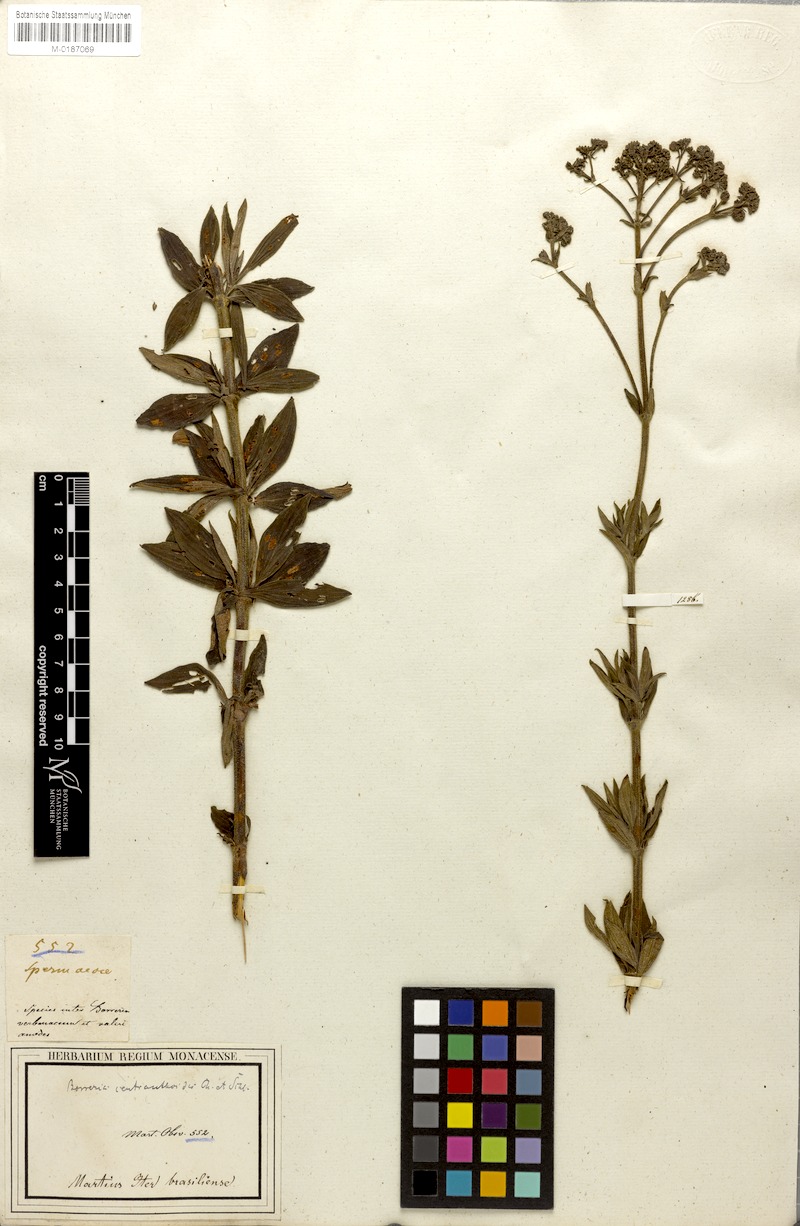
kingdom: Plantae
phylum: Tracheophyta
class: Magnoliopsida
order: Gentianales
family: Rubiaceae
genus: Galianthe
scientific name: Galianthe centranthoides
